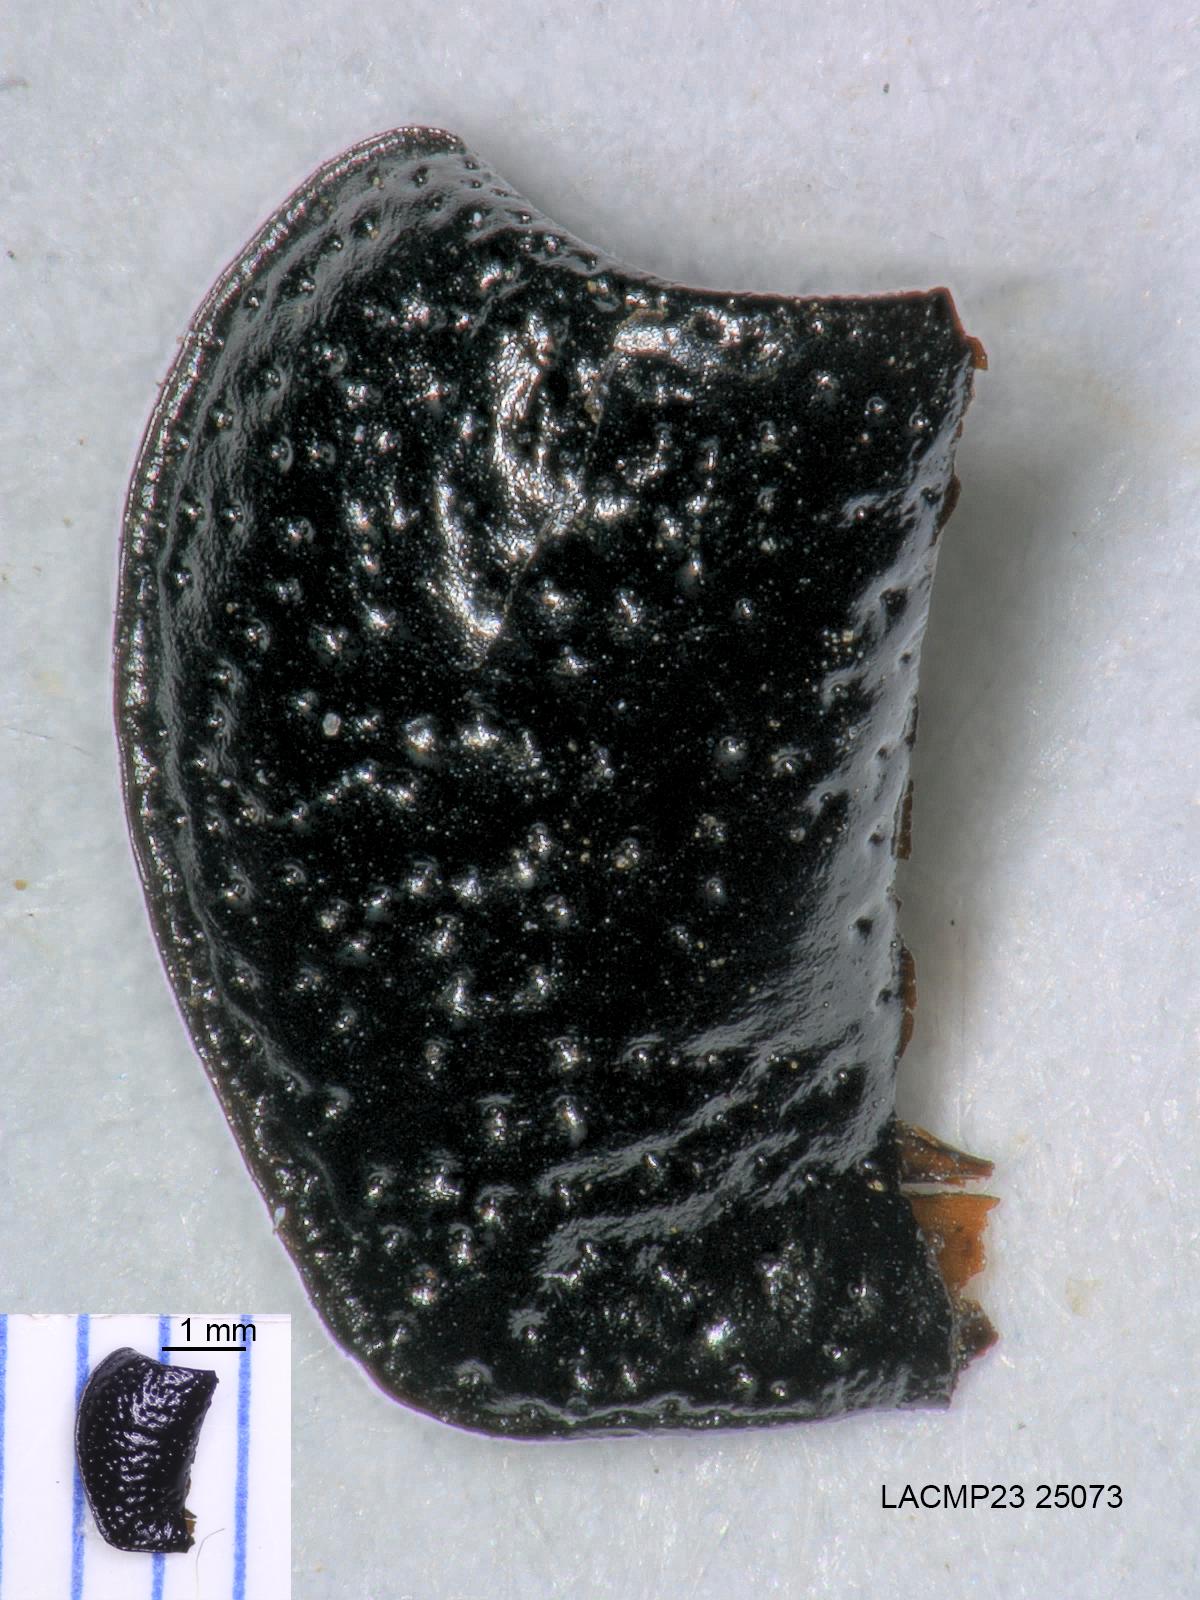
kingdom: Animalia
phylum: Arthropoda
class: Insecta
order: Coleoptera
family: Carabidae
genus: Dicheirus
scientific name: Dicheirus dilatatus
